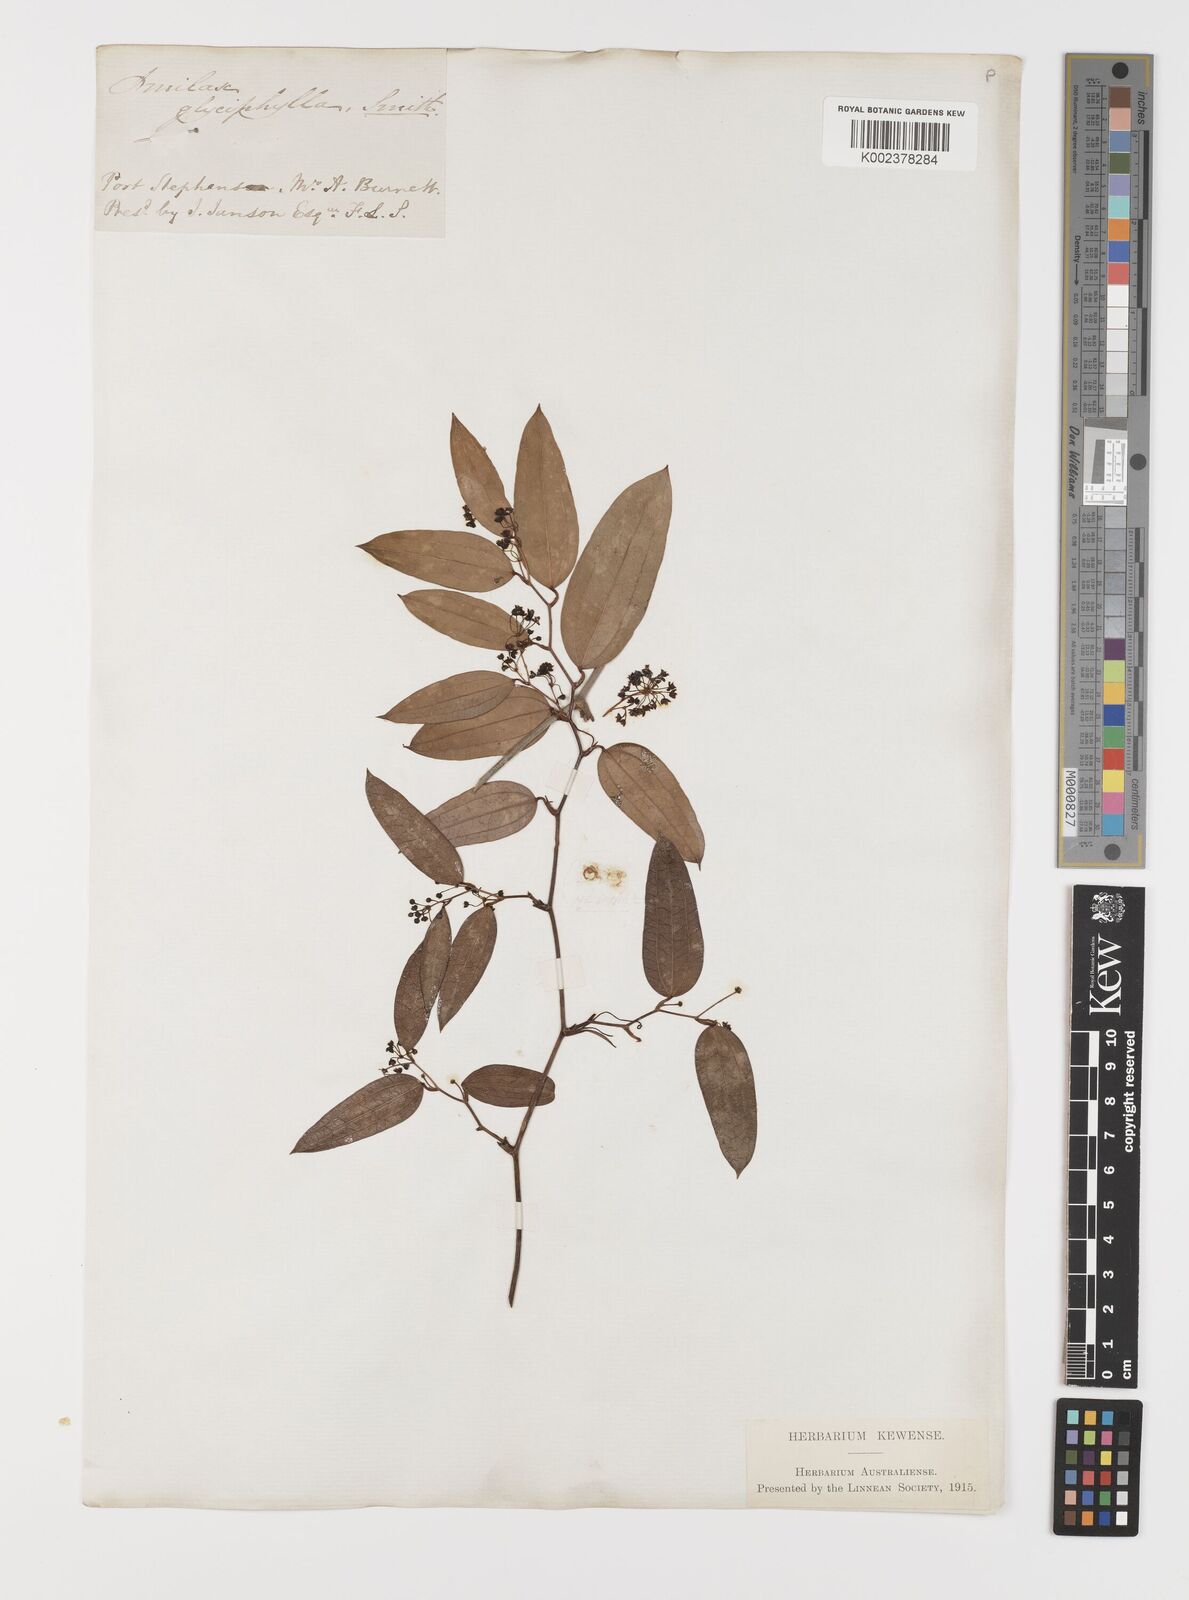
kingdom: Plantae
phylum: Tracheophyta
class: Liliopsida
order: Liliales
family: Smilacaceae
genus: Smilax
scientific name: Smilax leucophylla
